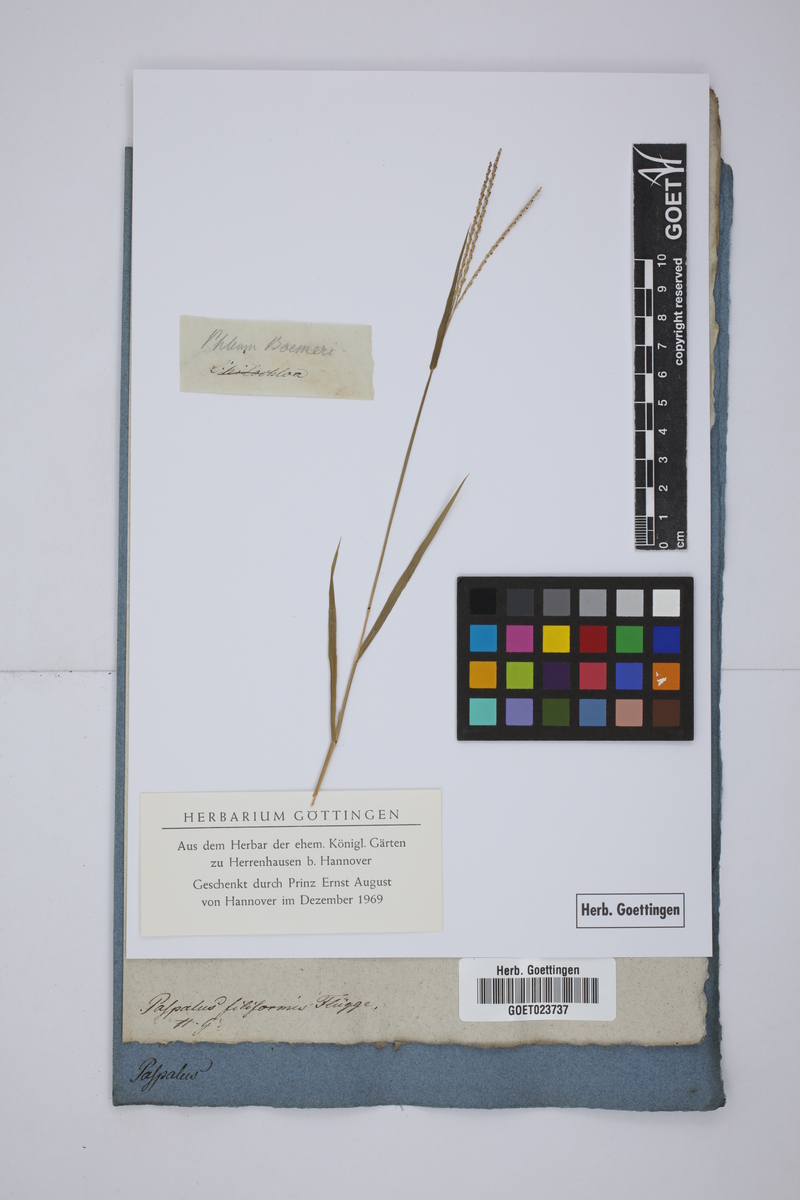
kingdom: Plantae
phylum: Tracheophyta
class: Liliopsida
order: Poales
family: Poaceae
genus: Digitaria
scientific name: Digitaria filiformis
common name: Slender crabgrass
